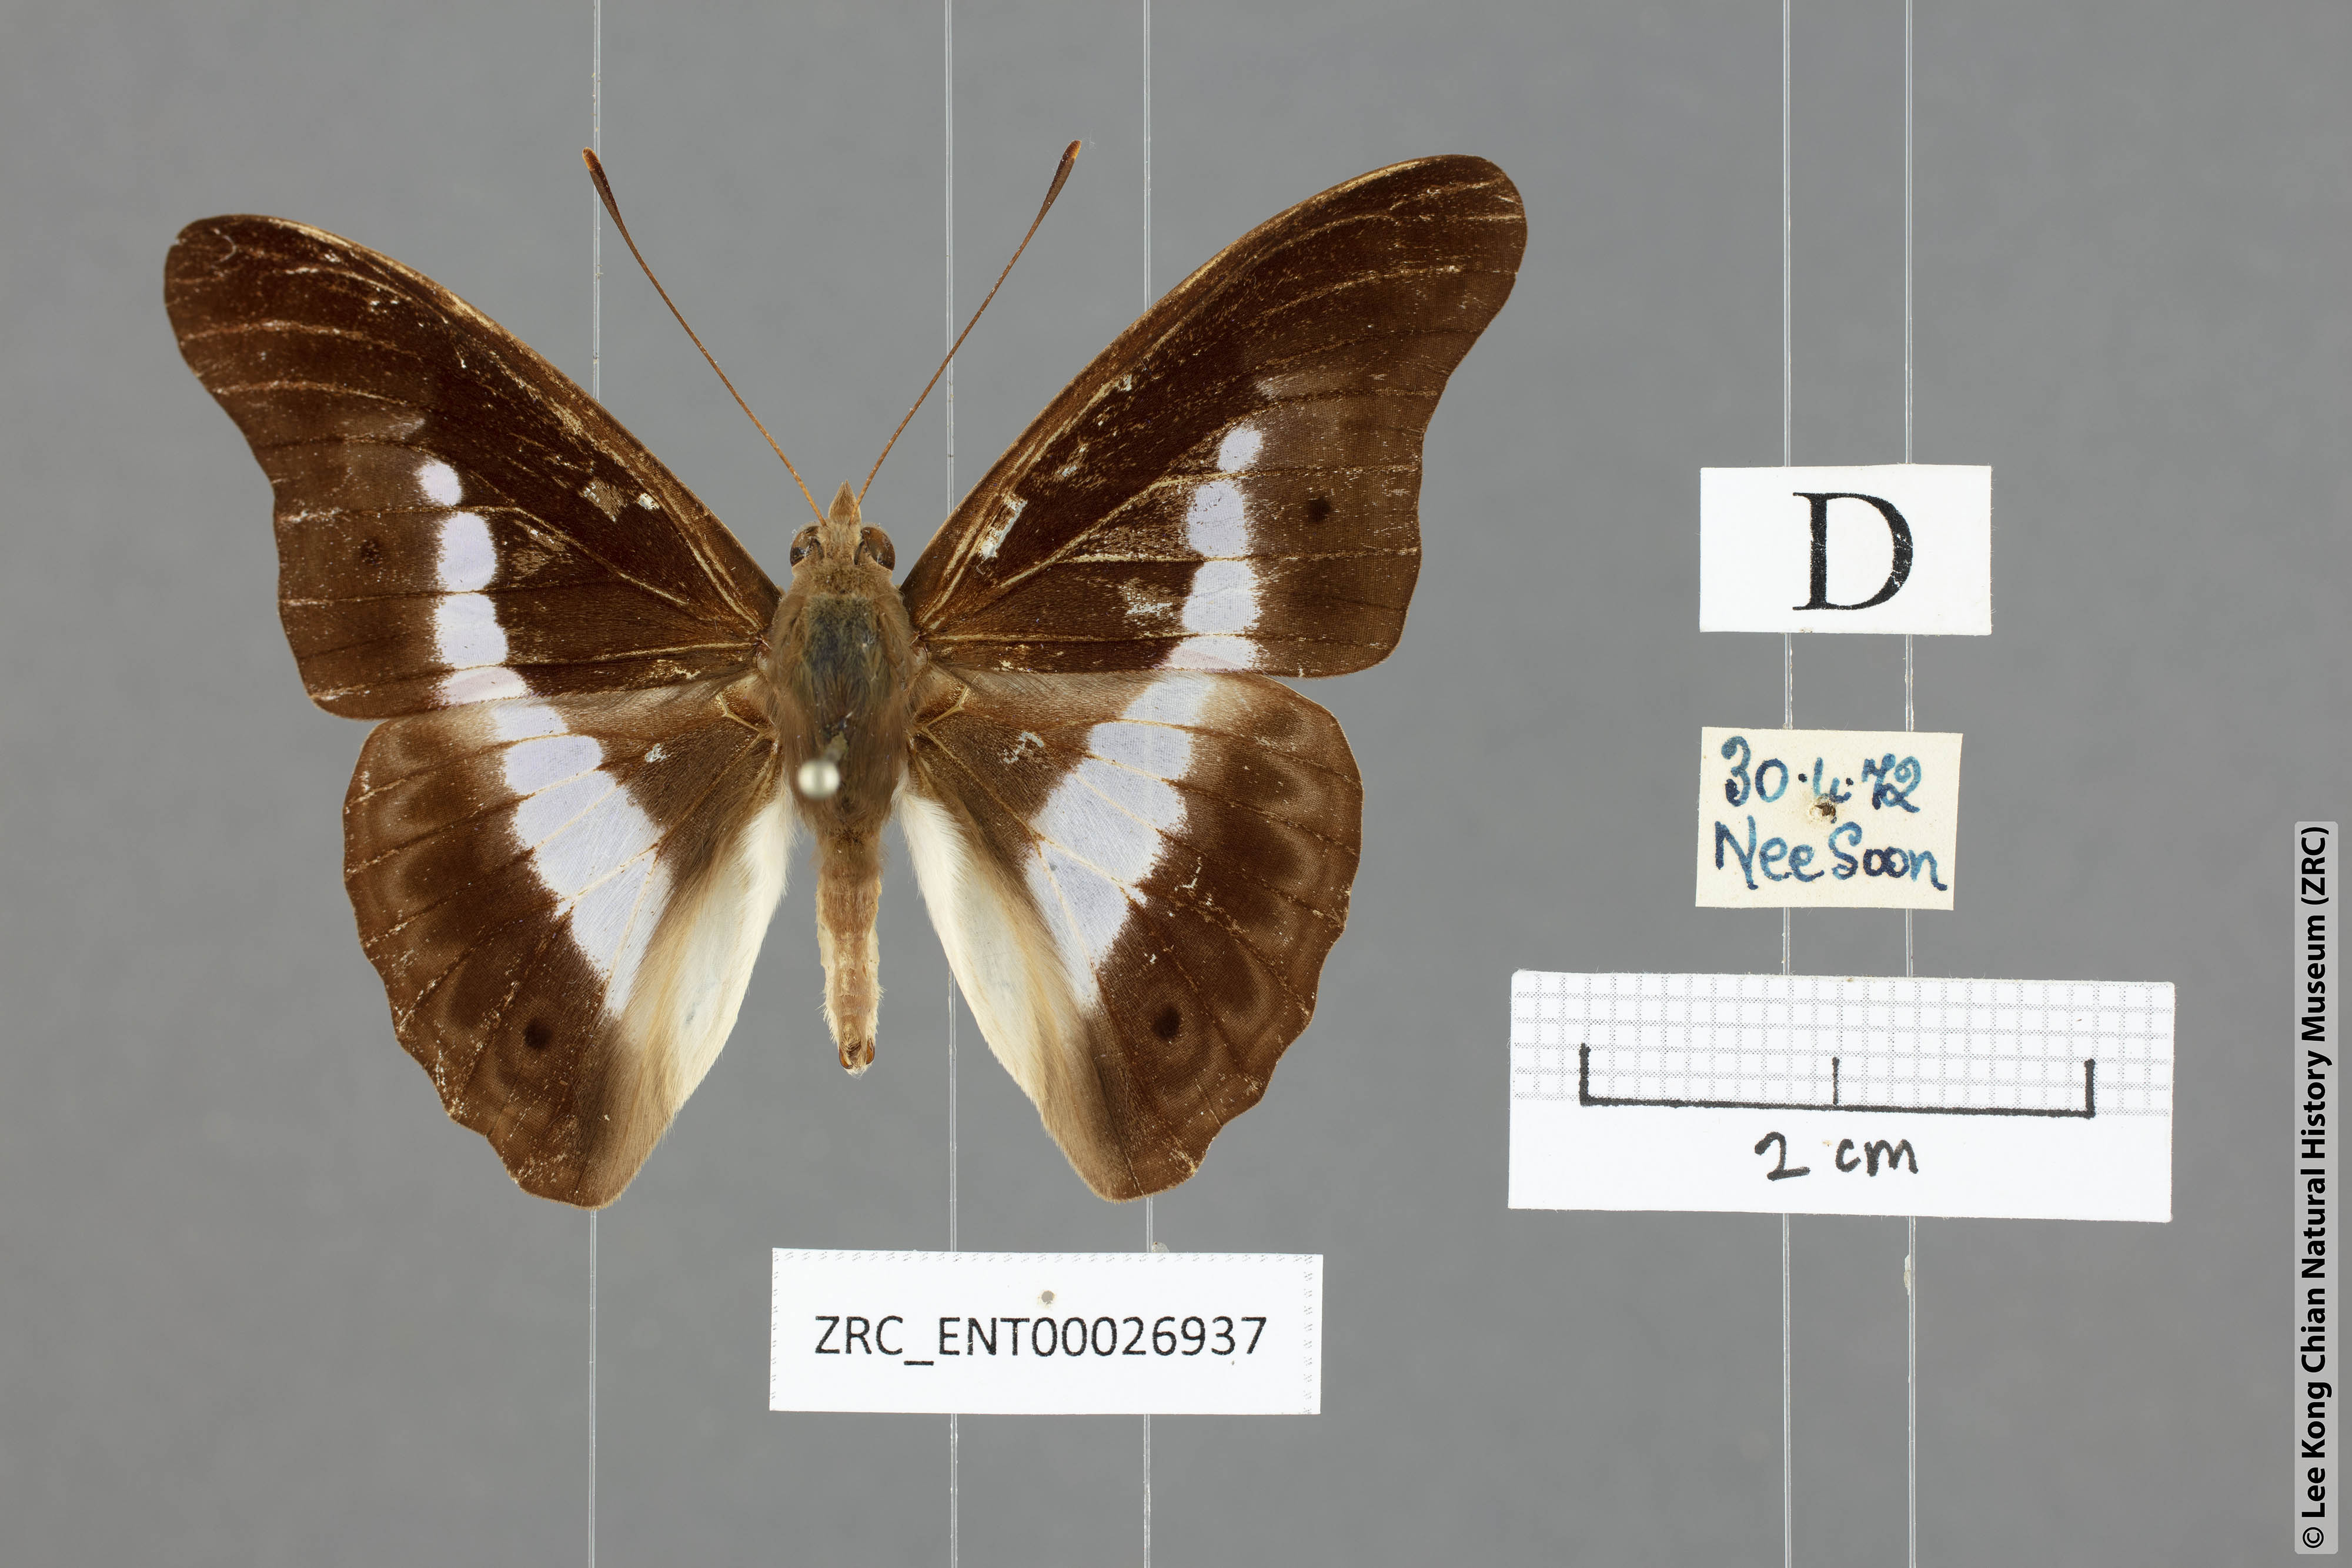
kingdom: Animalia
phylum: Arthropoda
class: Insecta
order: Lepidoptera
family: Nymphalidae
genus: Eulaceura
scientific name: Eulaceura osteria
